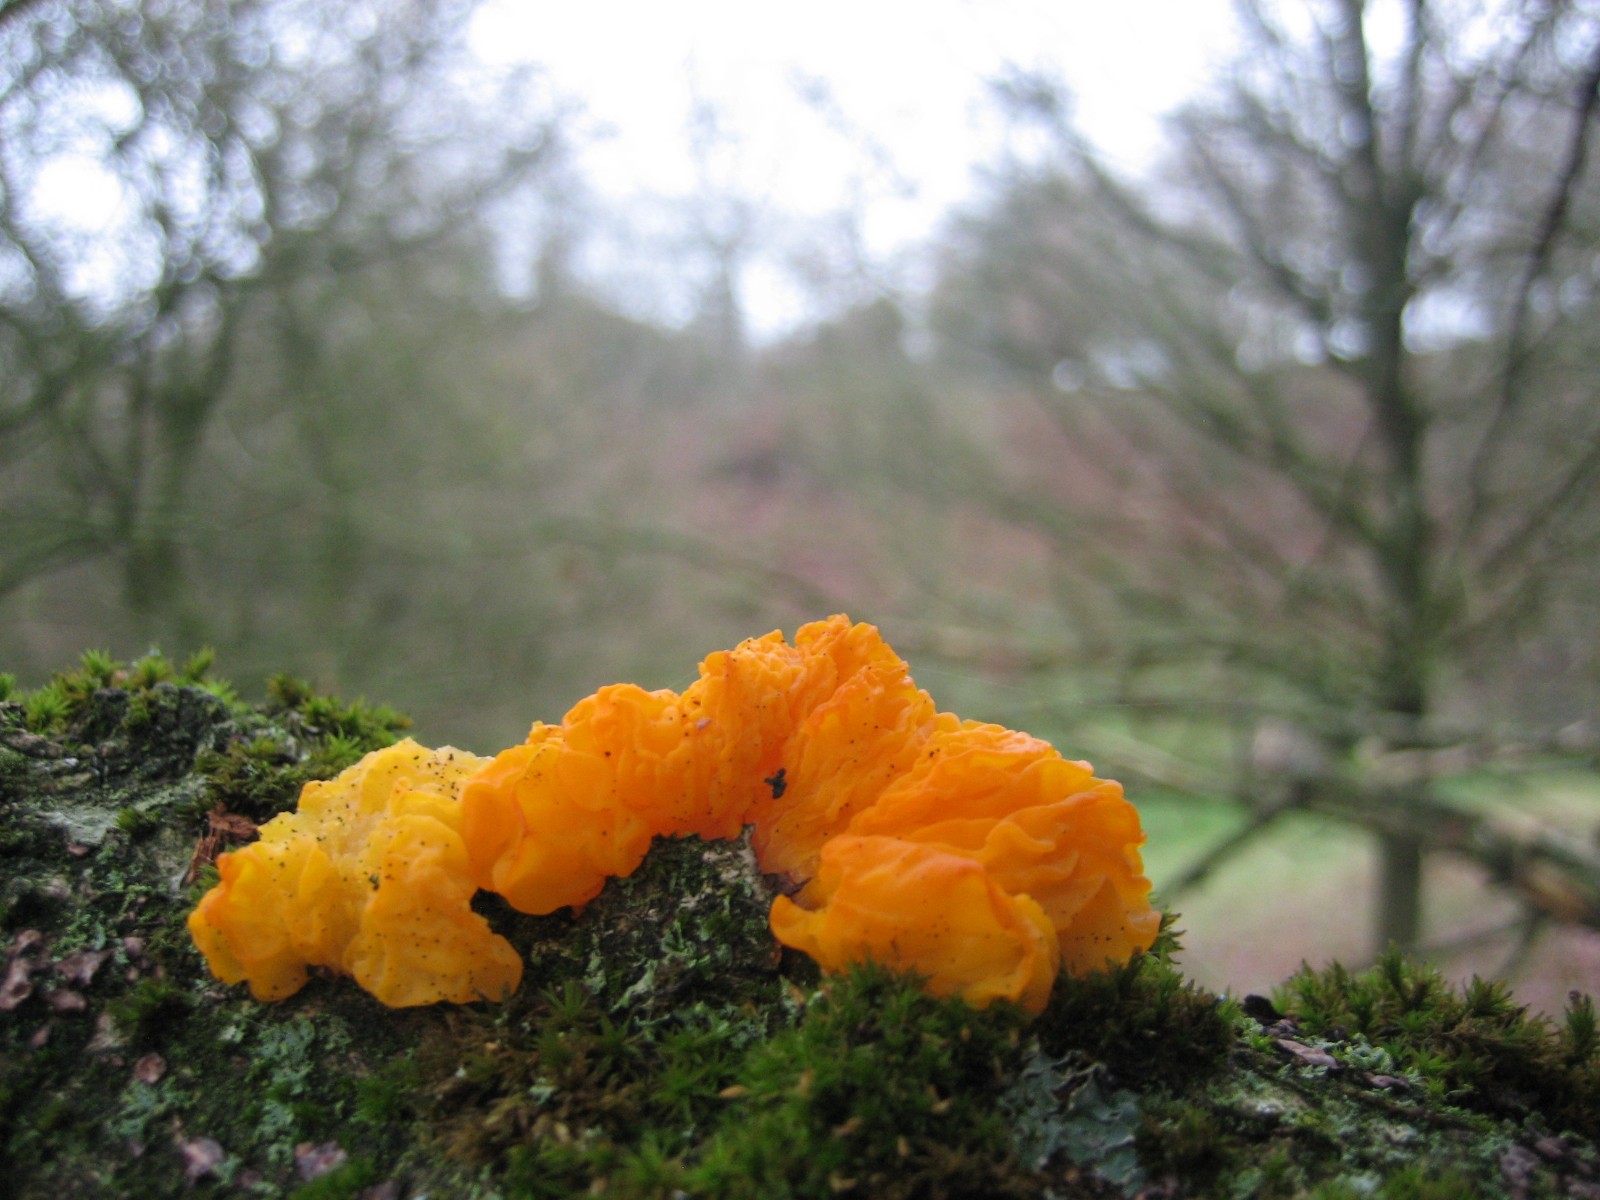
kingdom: Fungi
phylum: Basidiomycota
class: Tremellomycetes
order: Tremellales
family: Tremellaceae
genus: Tremella
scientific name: Tremella mesenterica
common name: gul bævresvamp
